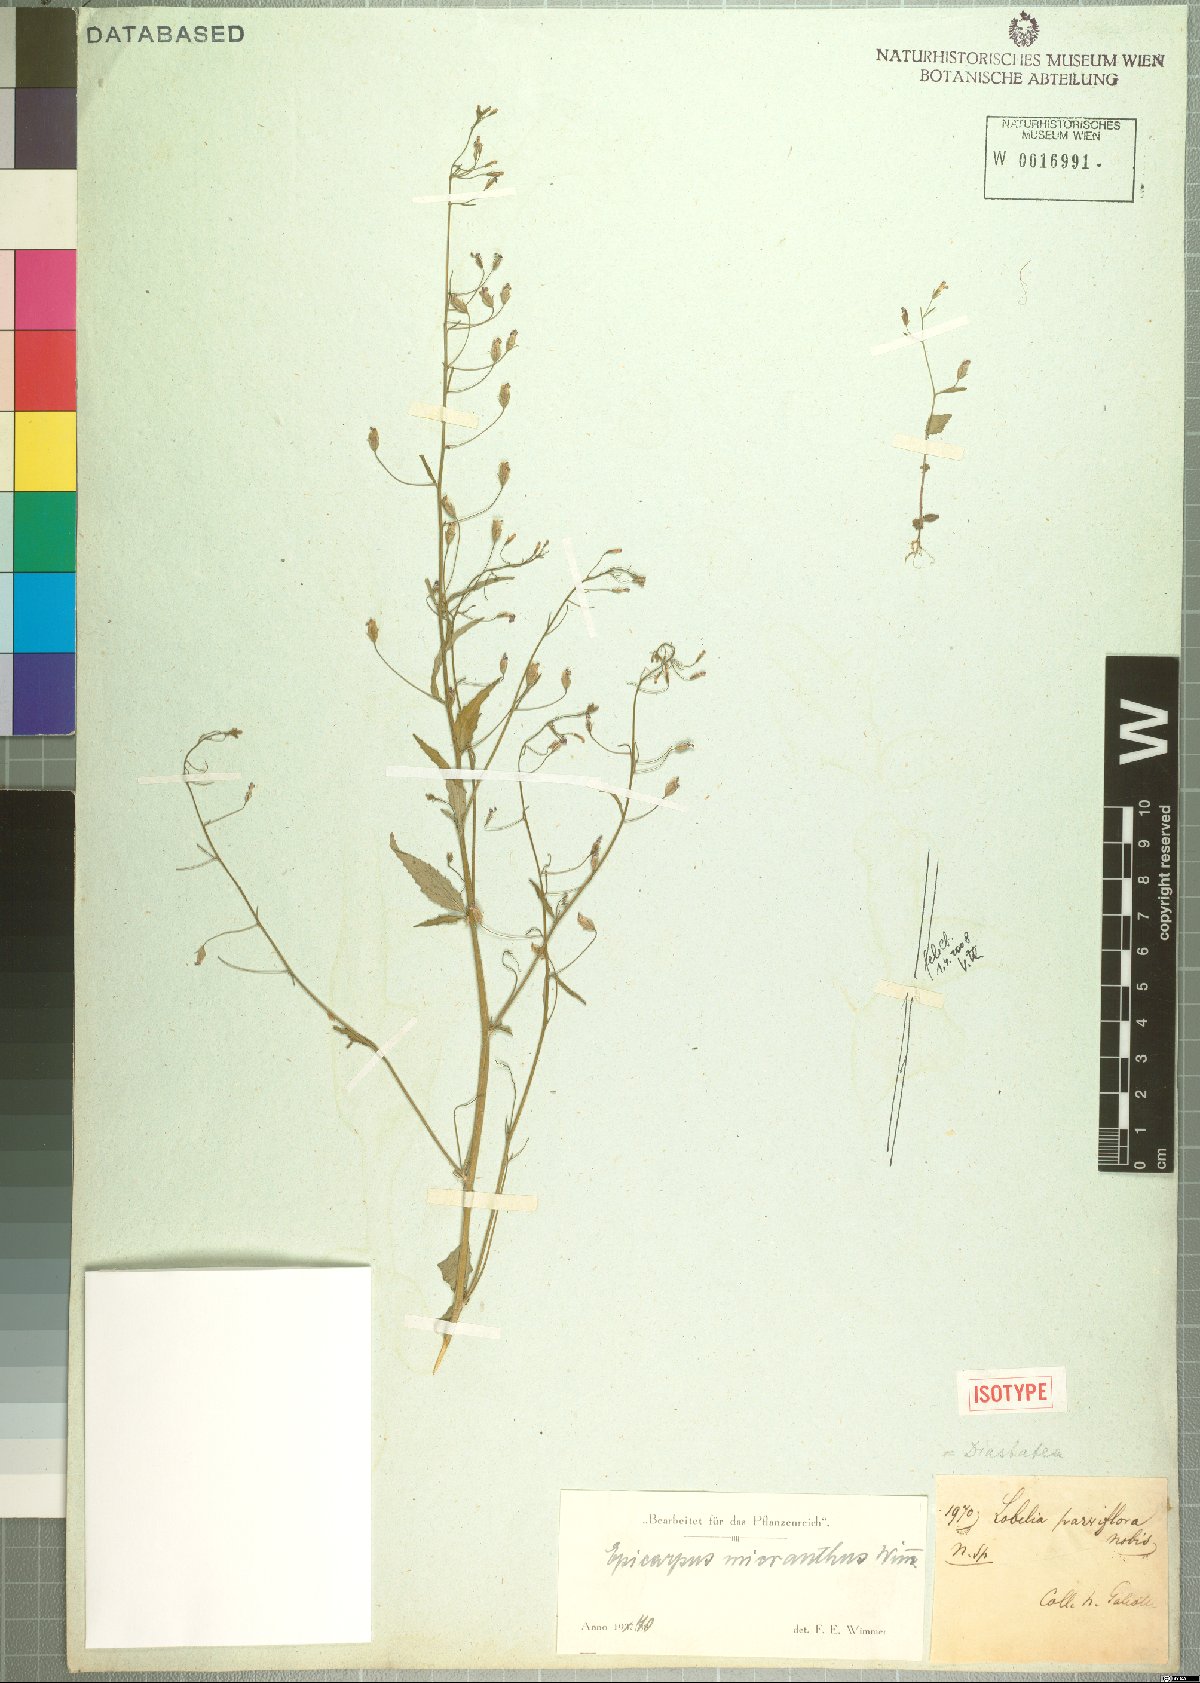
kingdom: Plantae
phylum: Tracheophyta
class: Magnoliopsida
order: Asterales
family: Campanulaceae
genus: Diastatea
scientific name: Diastatea micrantha
